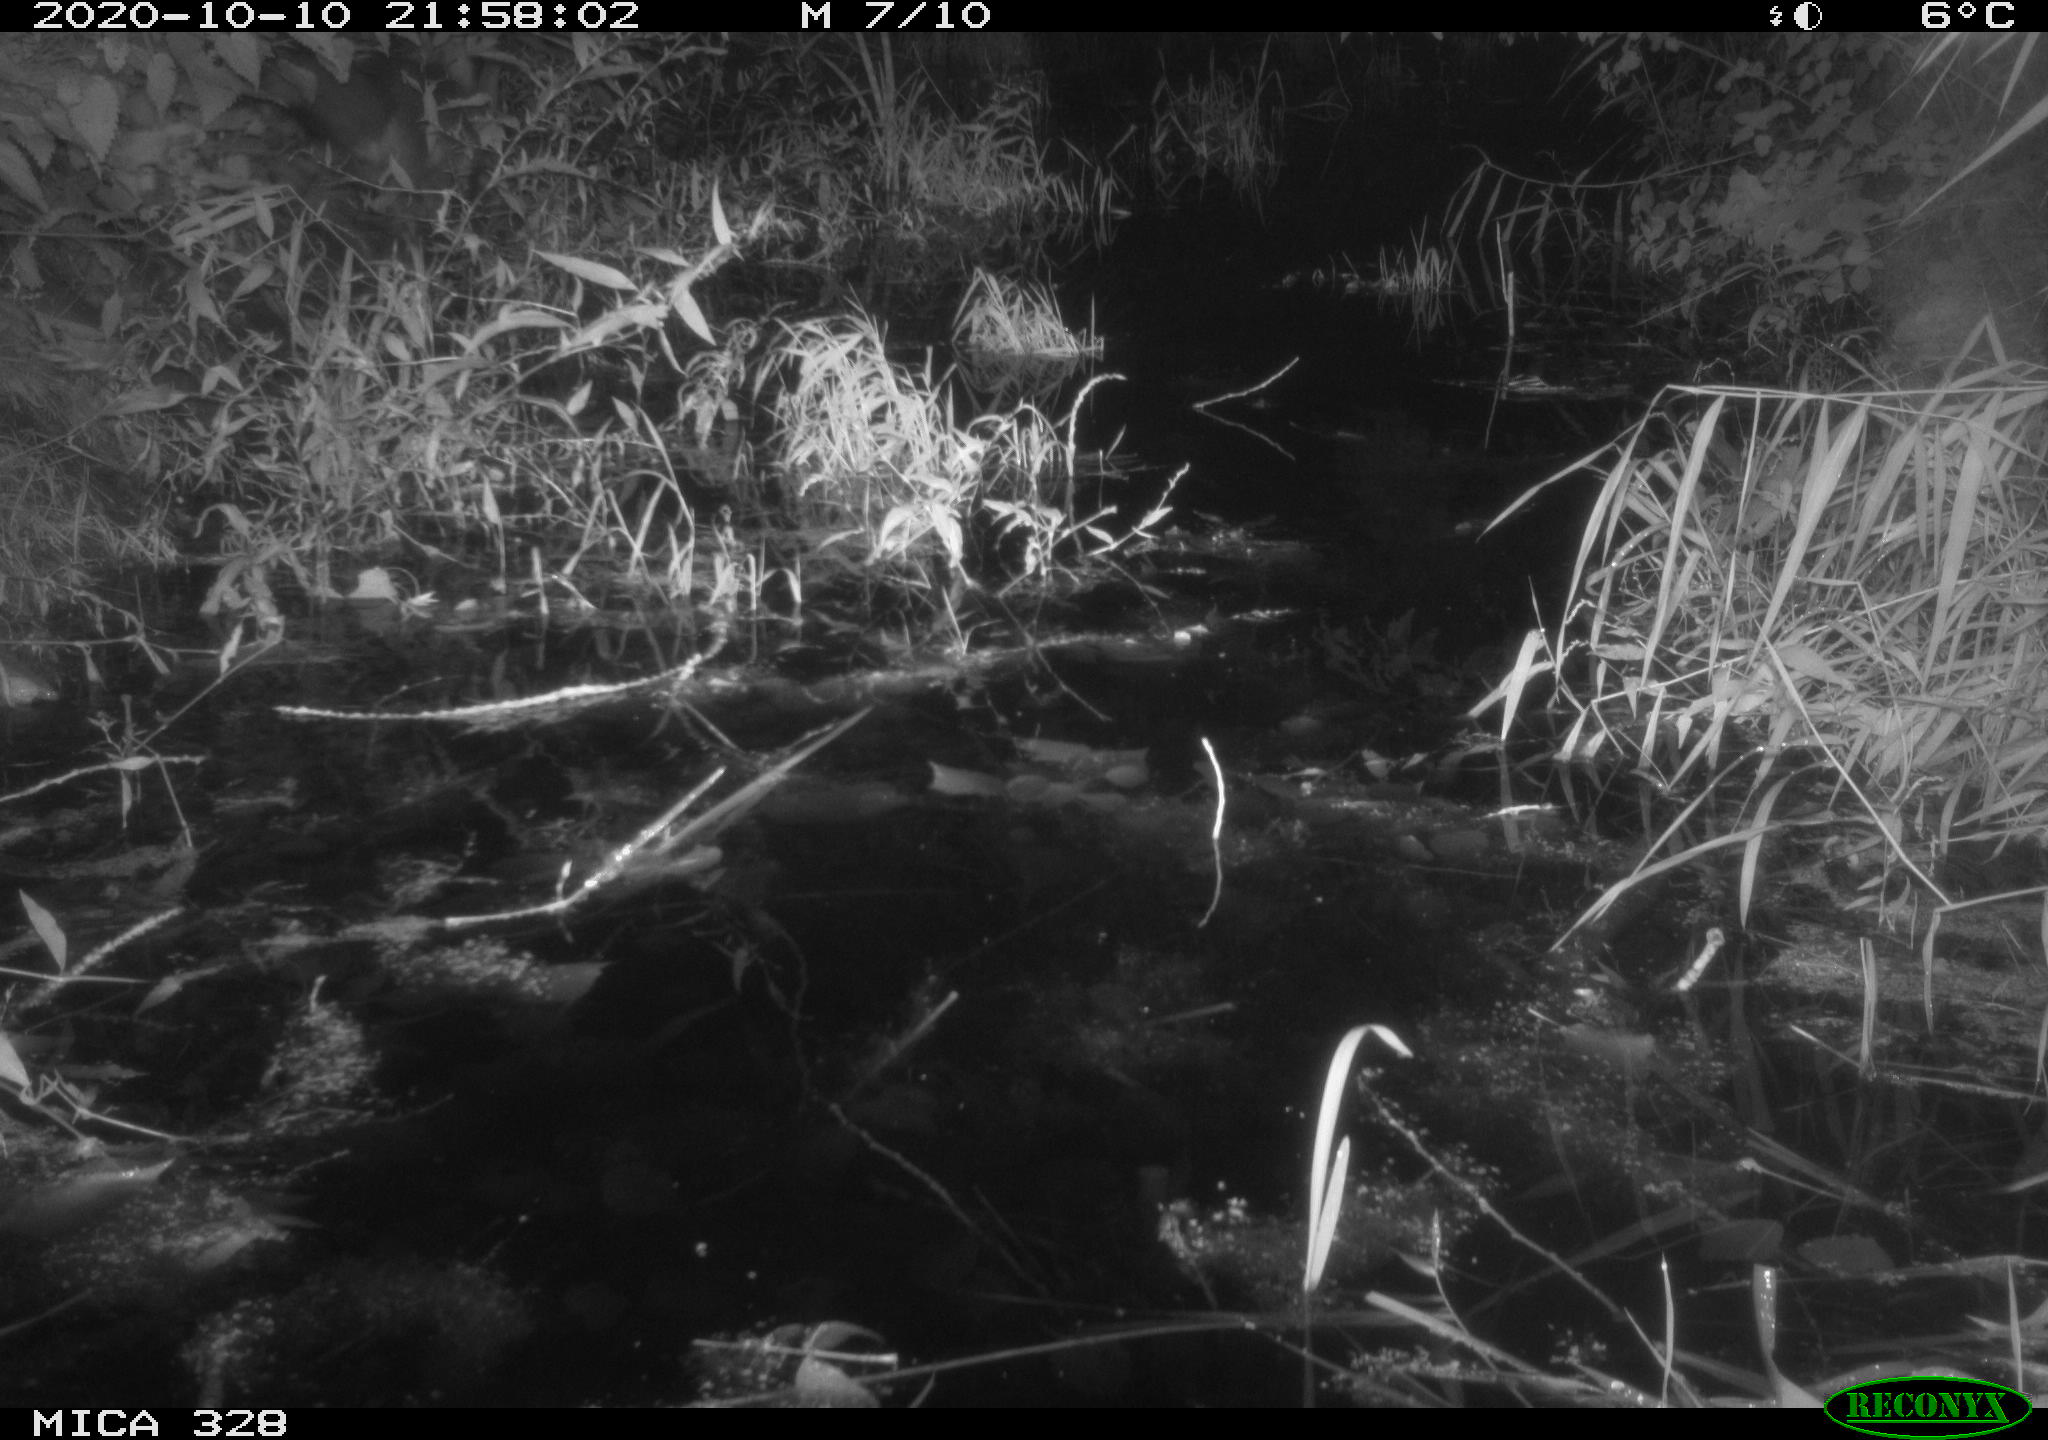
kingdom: Animalia
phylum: Chordata
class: Mammalia
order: Carnivora
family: Canidae
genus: Vulpes
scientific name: Vulpes vulpes
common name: Red fox
